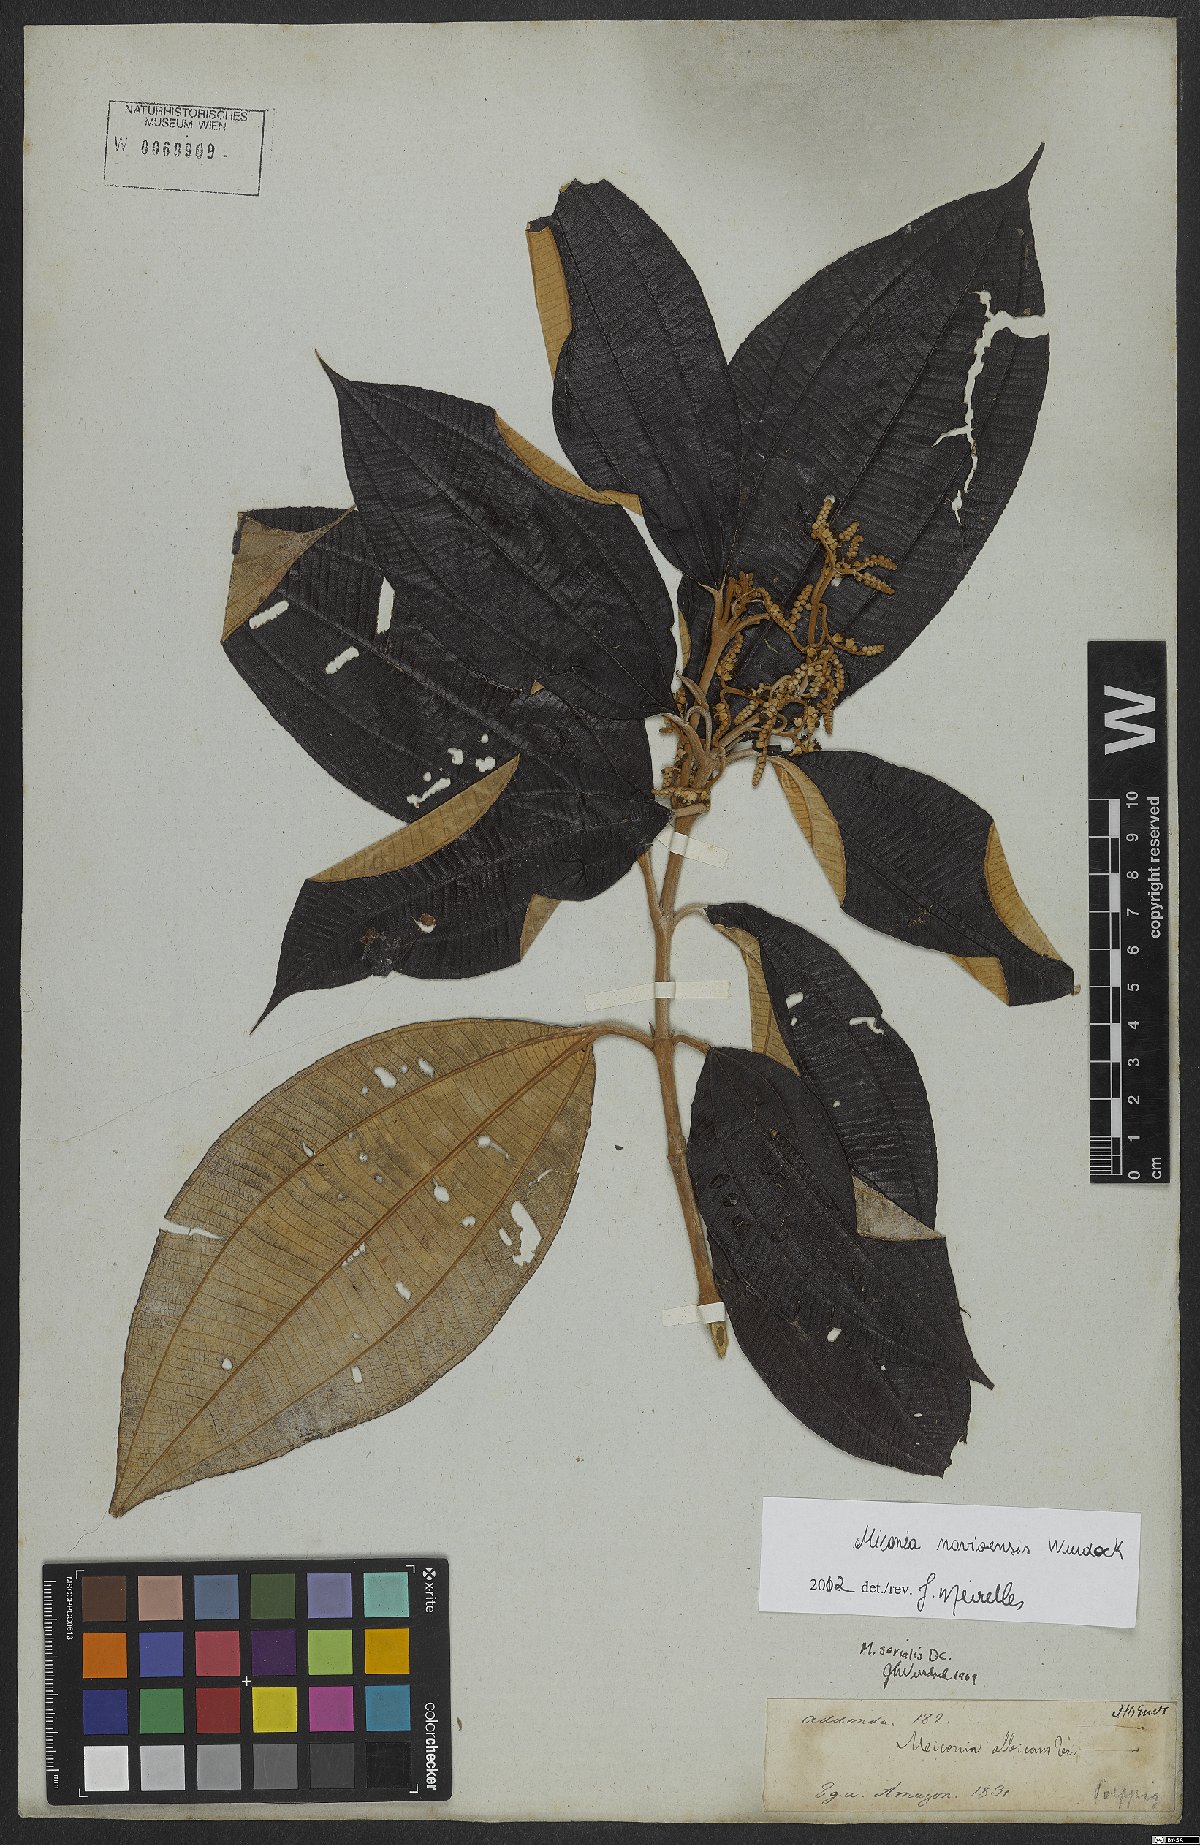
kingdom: Plantae
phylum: Tracheophyta
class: Magnoliopsida
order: Myrtales
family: Melastomataceae
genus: Miconia
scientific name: Miconia navioensis
